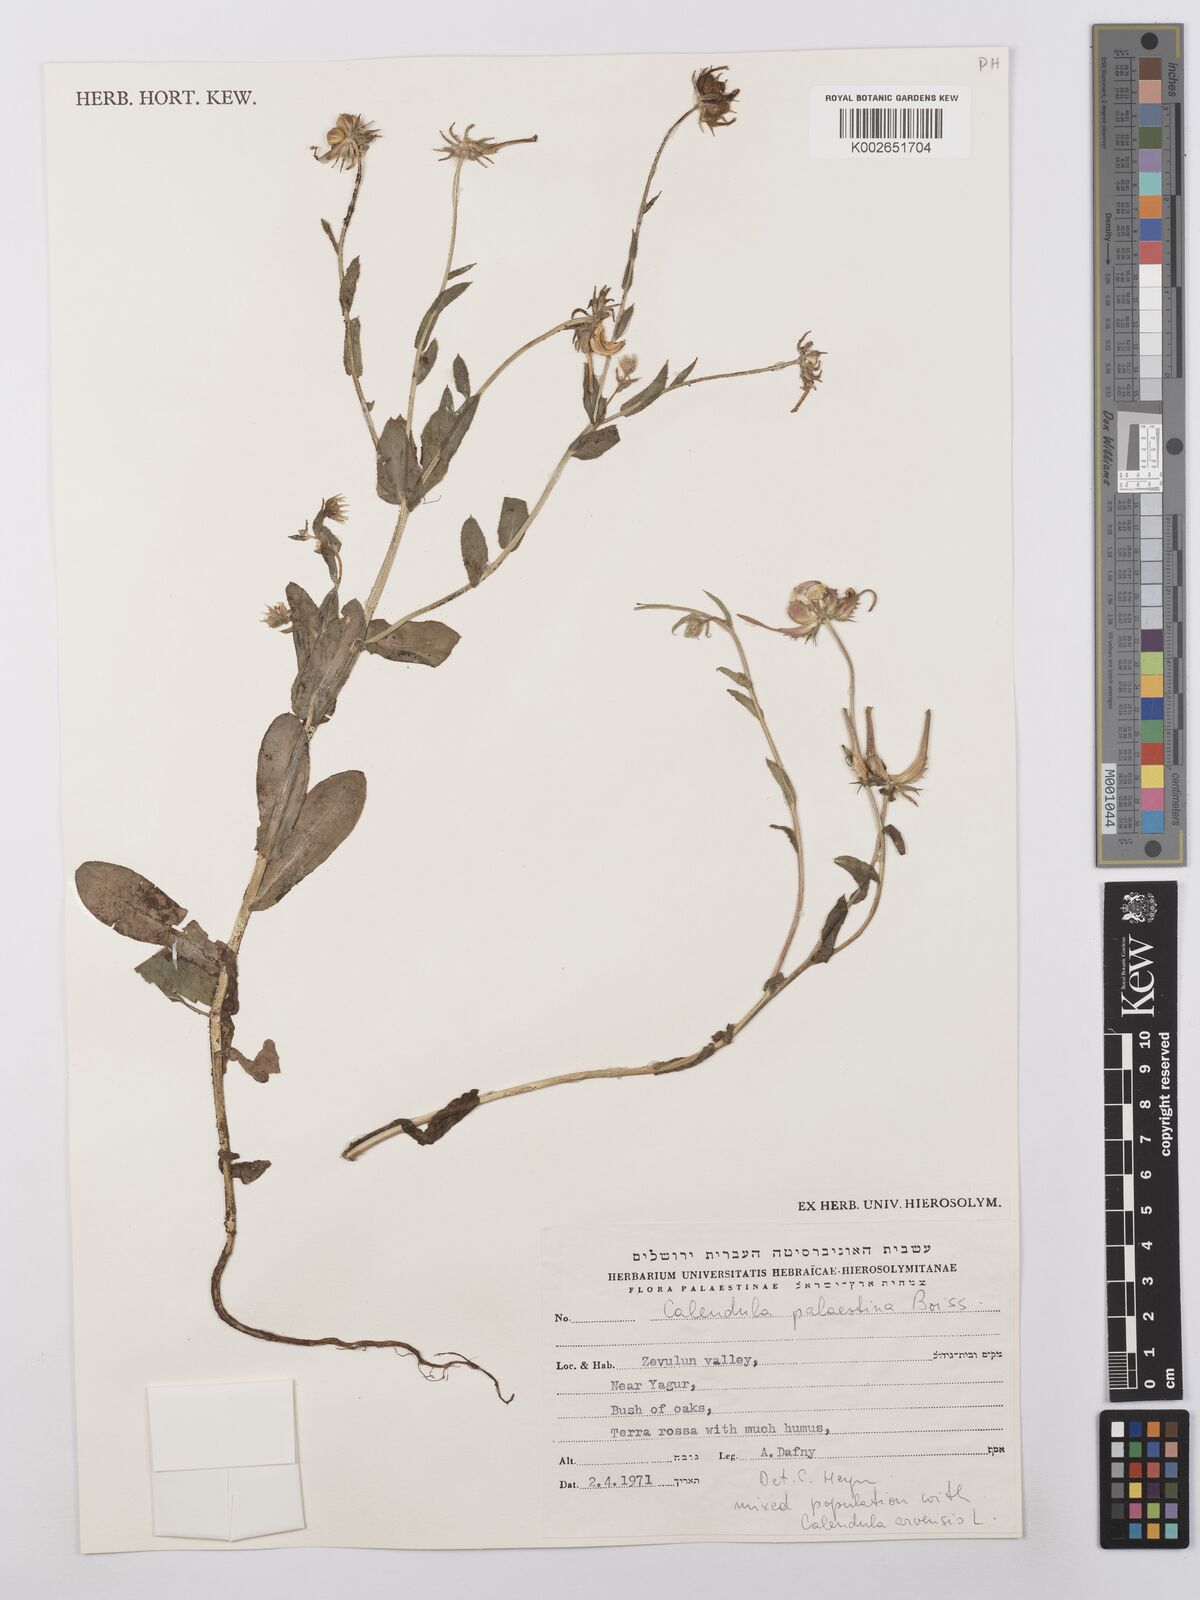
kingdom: Plantae
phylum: Tracheophyta
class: Magnoliopsida
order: Asterales
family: Asteraceae
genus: Calendula
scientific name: Calendula palaestina
